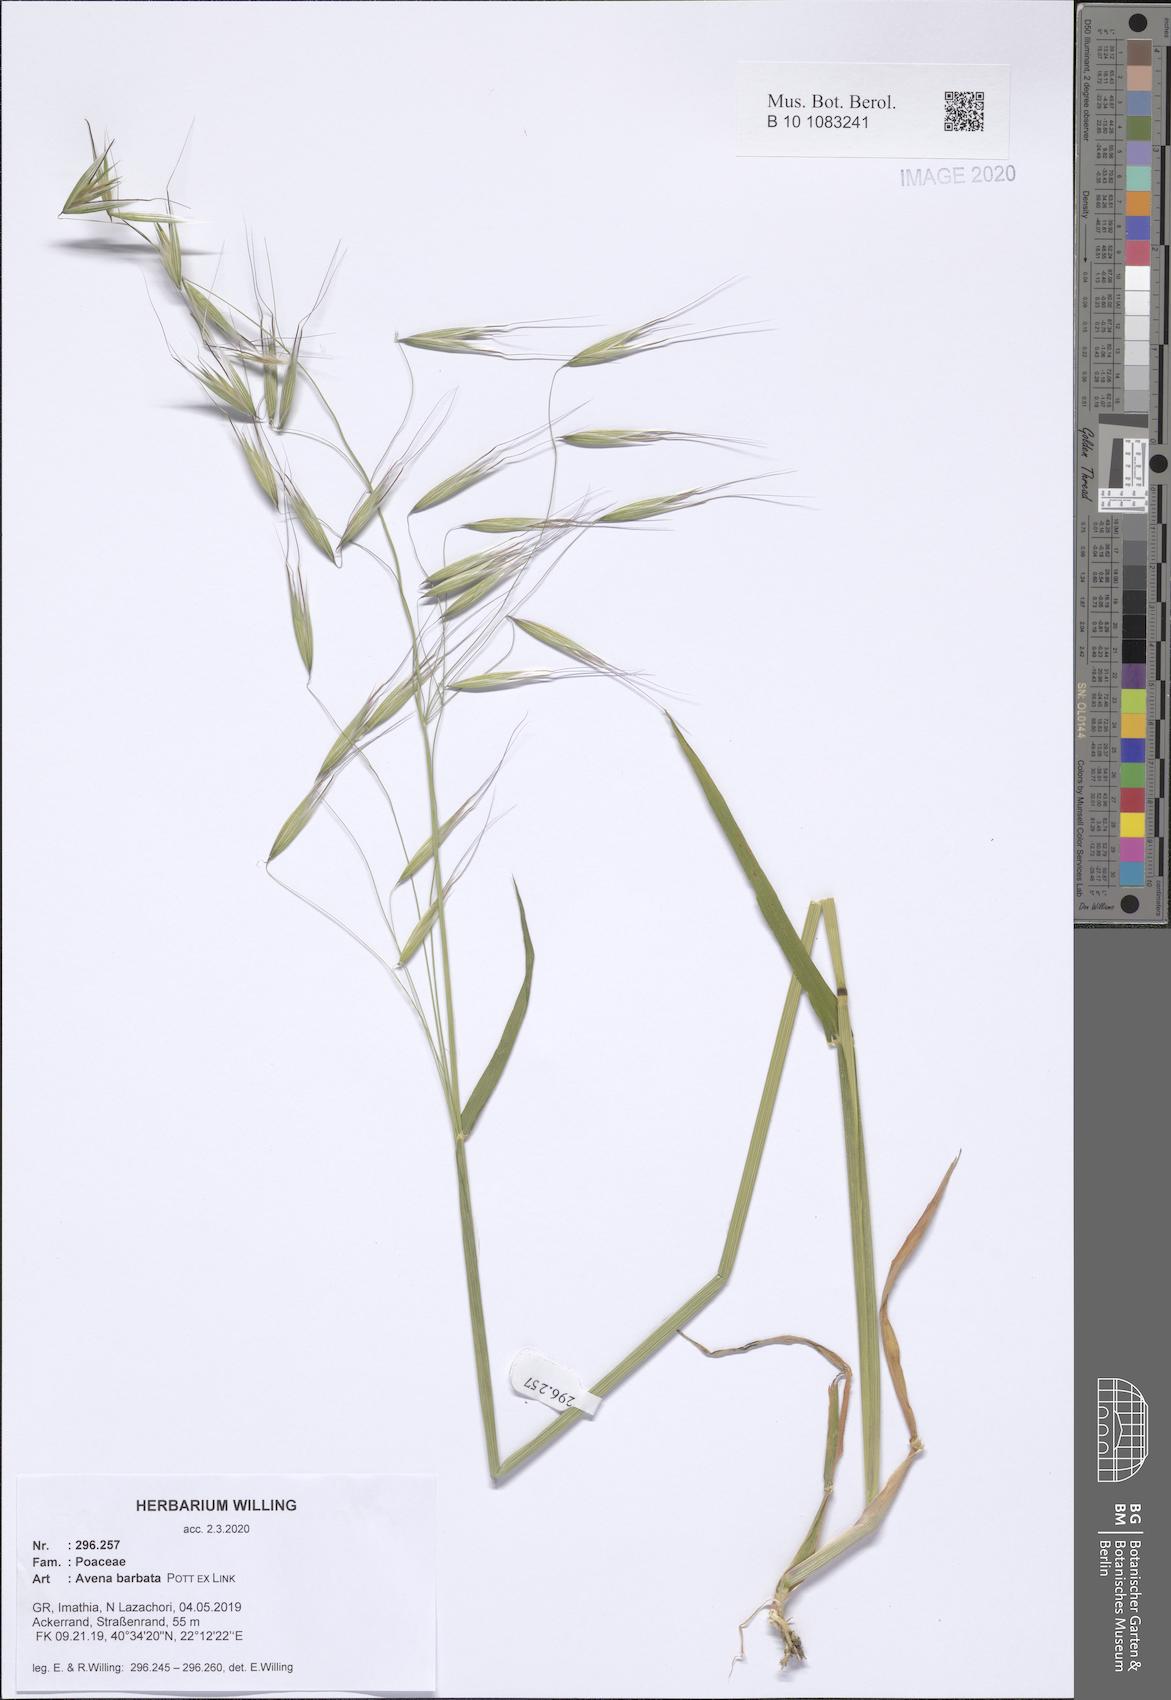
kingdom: Plantae
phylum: Tracheophyta
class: Liliopsida
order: Poales
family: Poaceae
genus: Avena
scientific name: Avena barbata
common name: Slender oat
